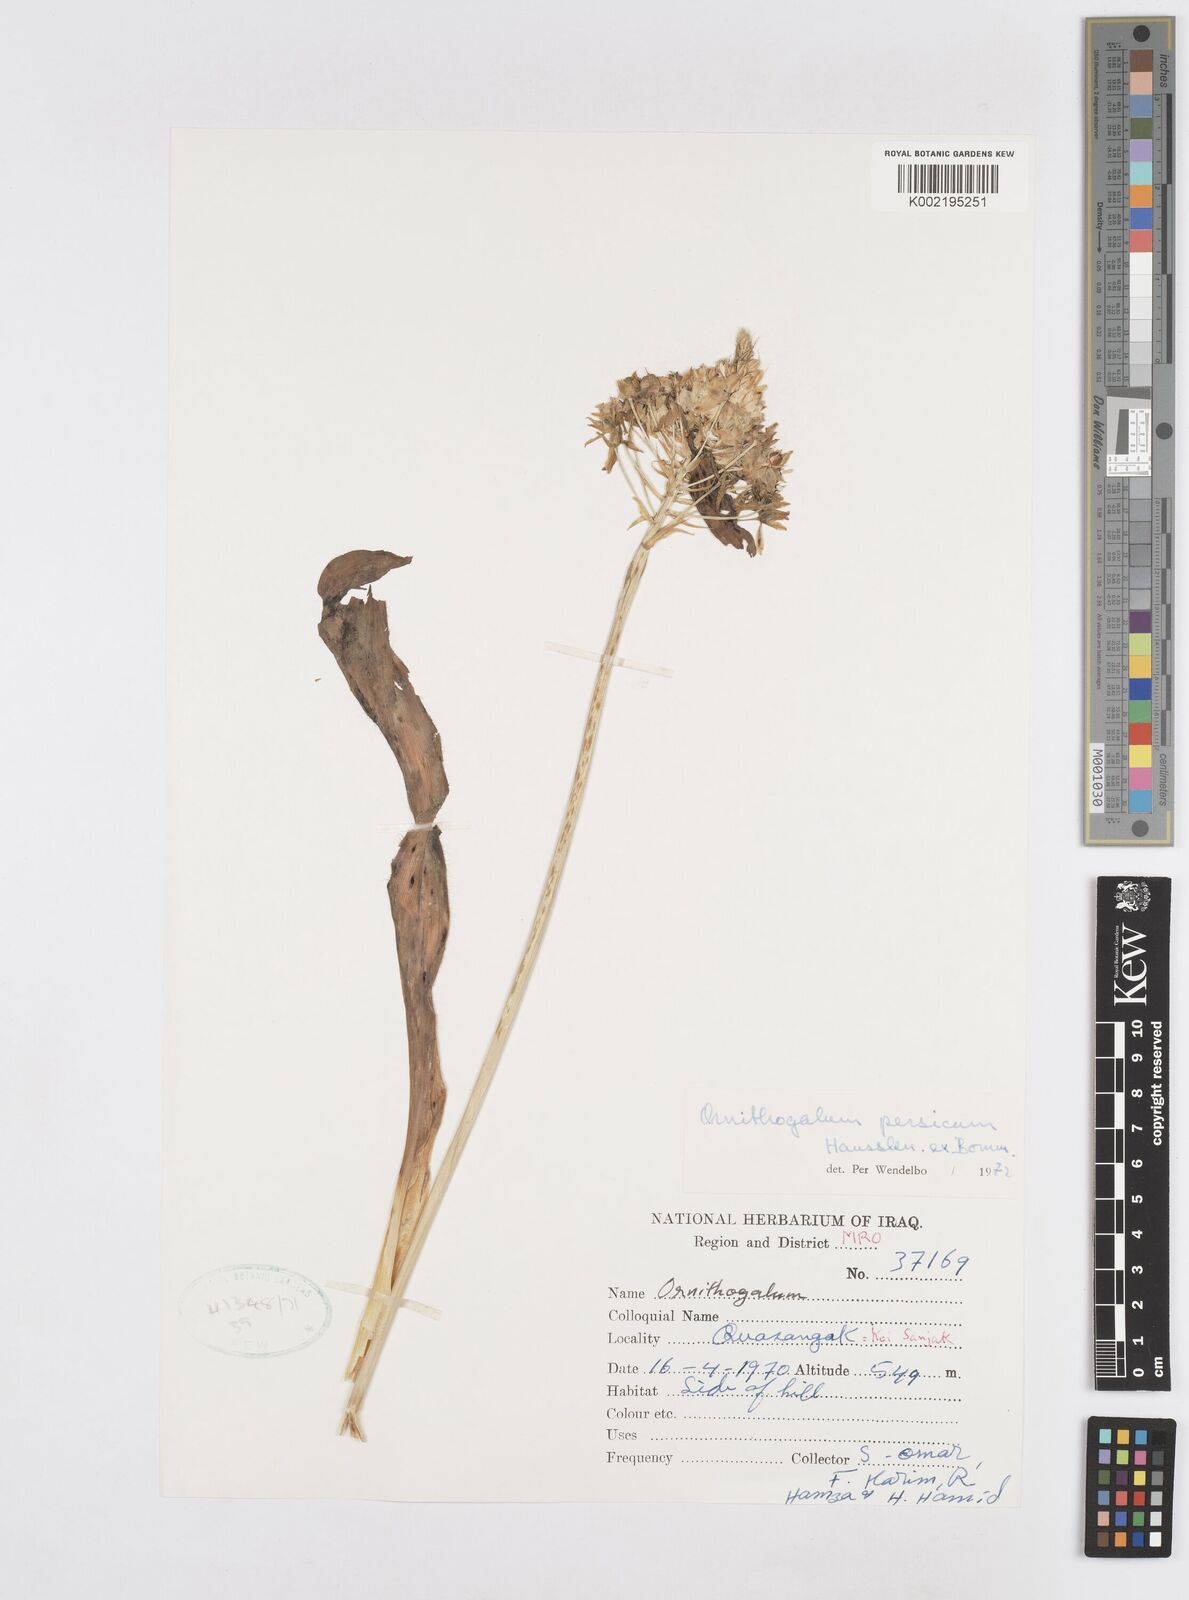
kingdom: Plantae
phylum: Tracheophyta
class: Liliopsida
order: Asparagales
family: Asparagaceae
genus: Ornithogalum
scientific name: Ornithogalum persicum
